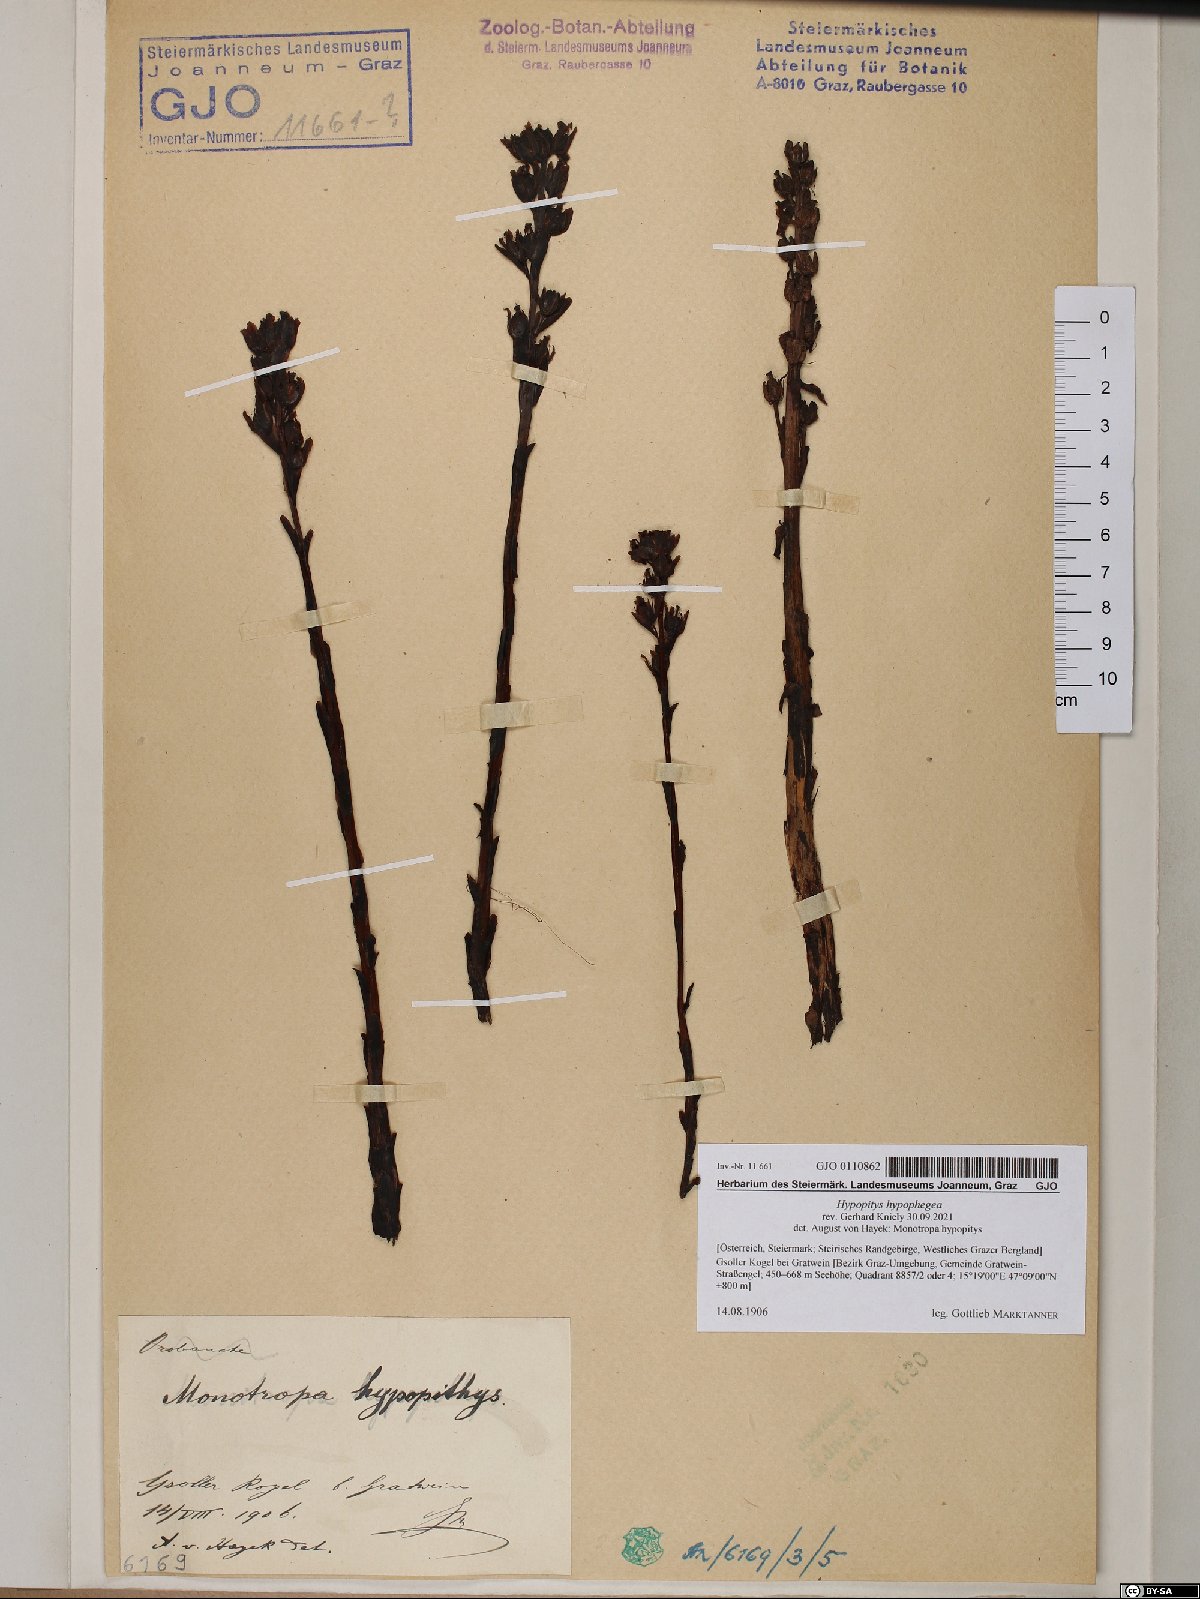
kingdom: Plantae
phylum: Tracheophyta
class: Magnoliopsida
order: Ericales
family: Ericaceae
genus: Hypopitys
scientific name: Hypopitys hypophegea
